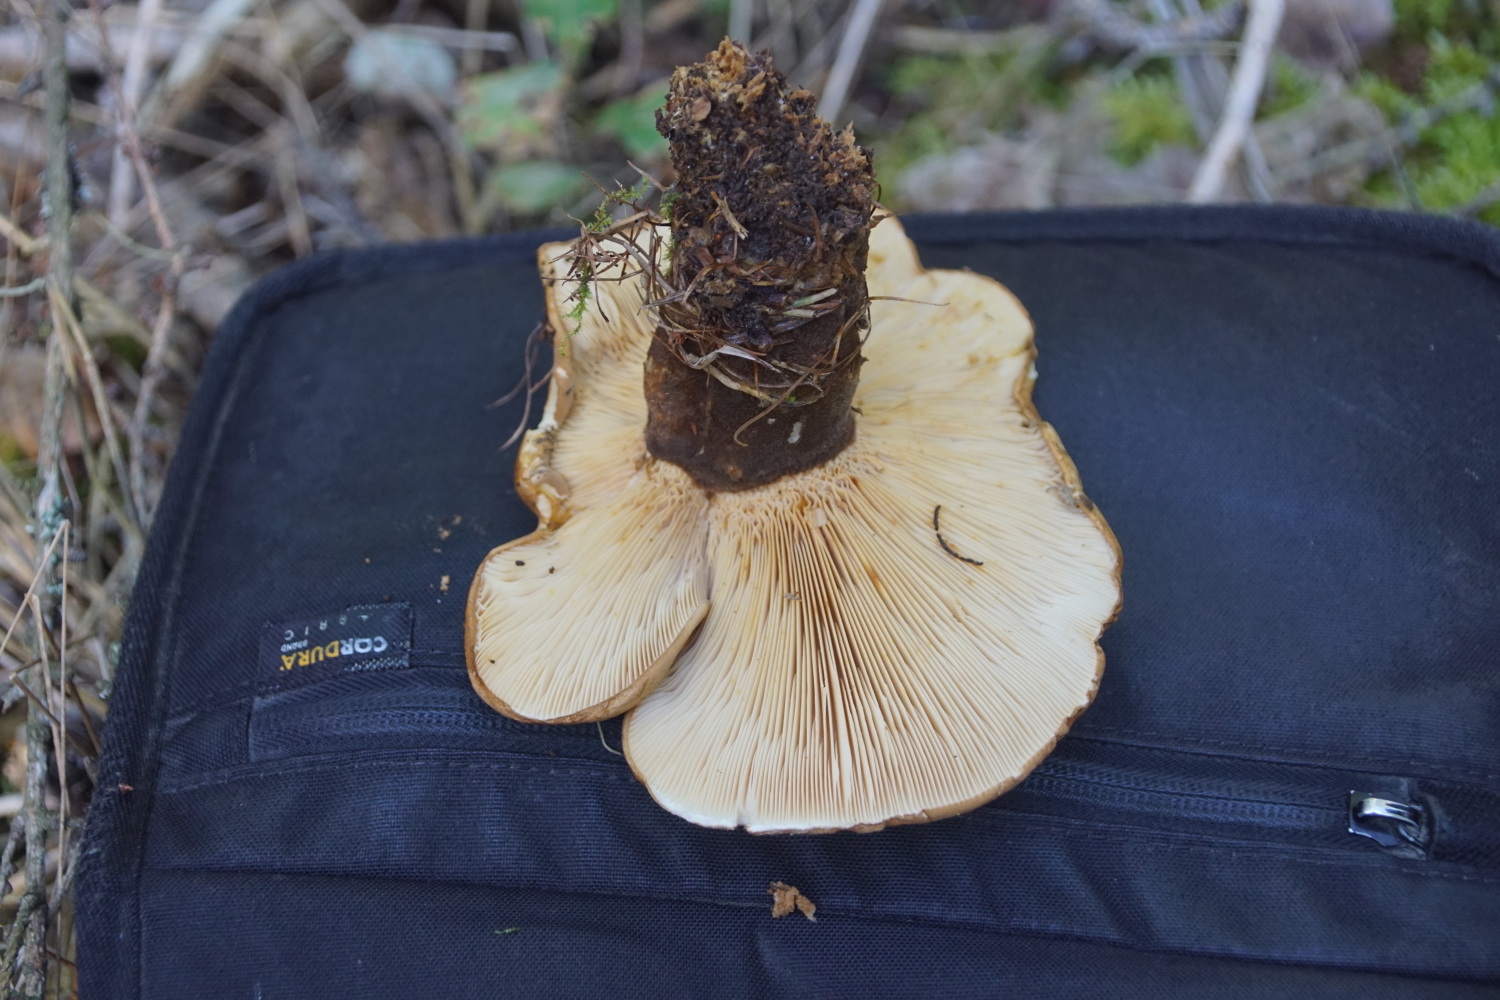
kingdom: Fungi
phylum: Basidiomycota
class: Agaricomycetes
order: Boletales
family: Tapinellaceae
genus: Tapinella
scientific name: Tapinella atrotomentosa
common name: sortfiltet viftesvamp
